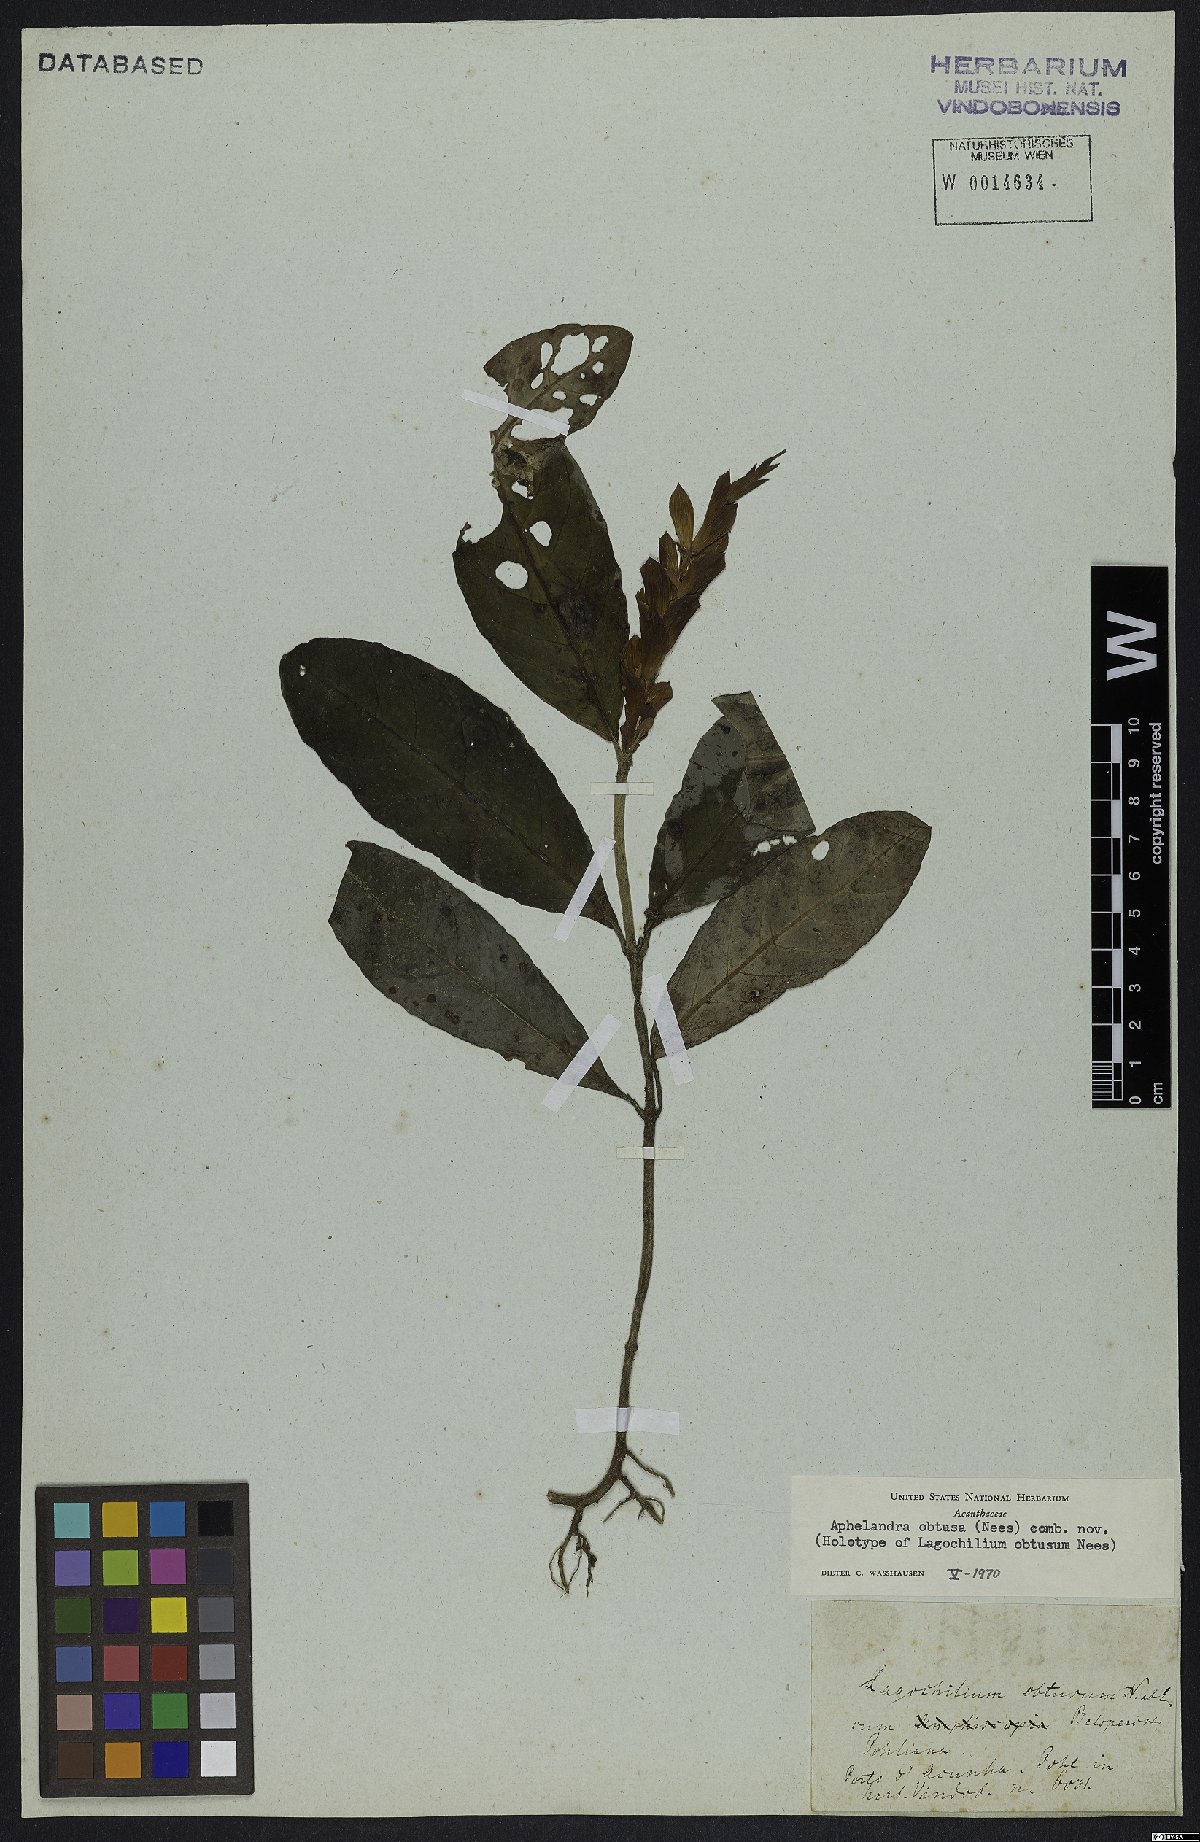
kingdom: Plantae
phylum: Tracheophyta
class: Magnoliopsida
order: Lamiales
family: Acanthaceae
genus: Aphelandra
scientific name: Aphelandra obtusa
